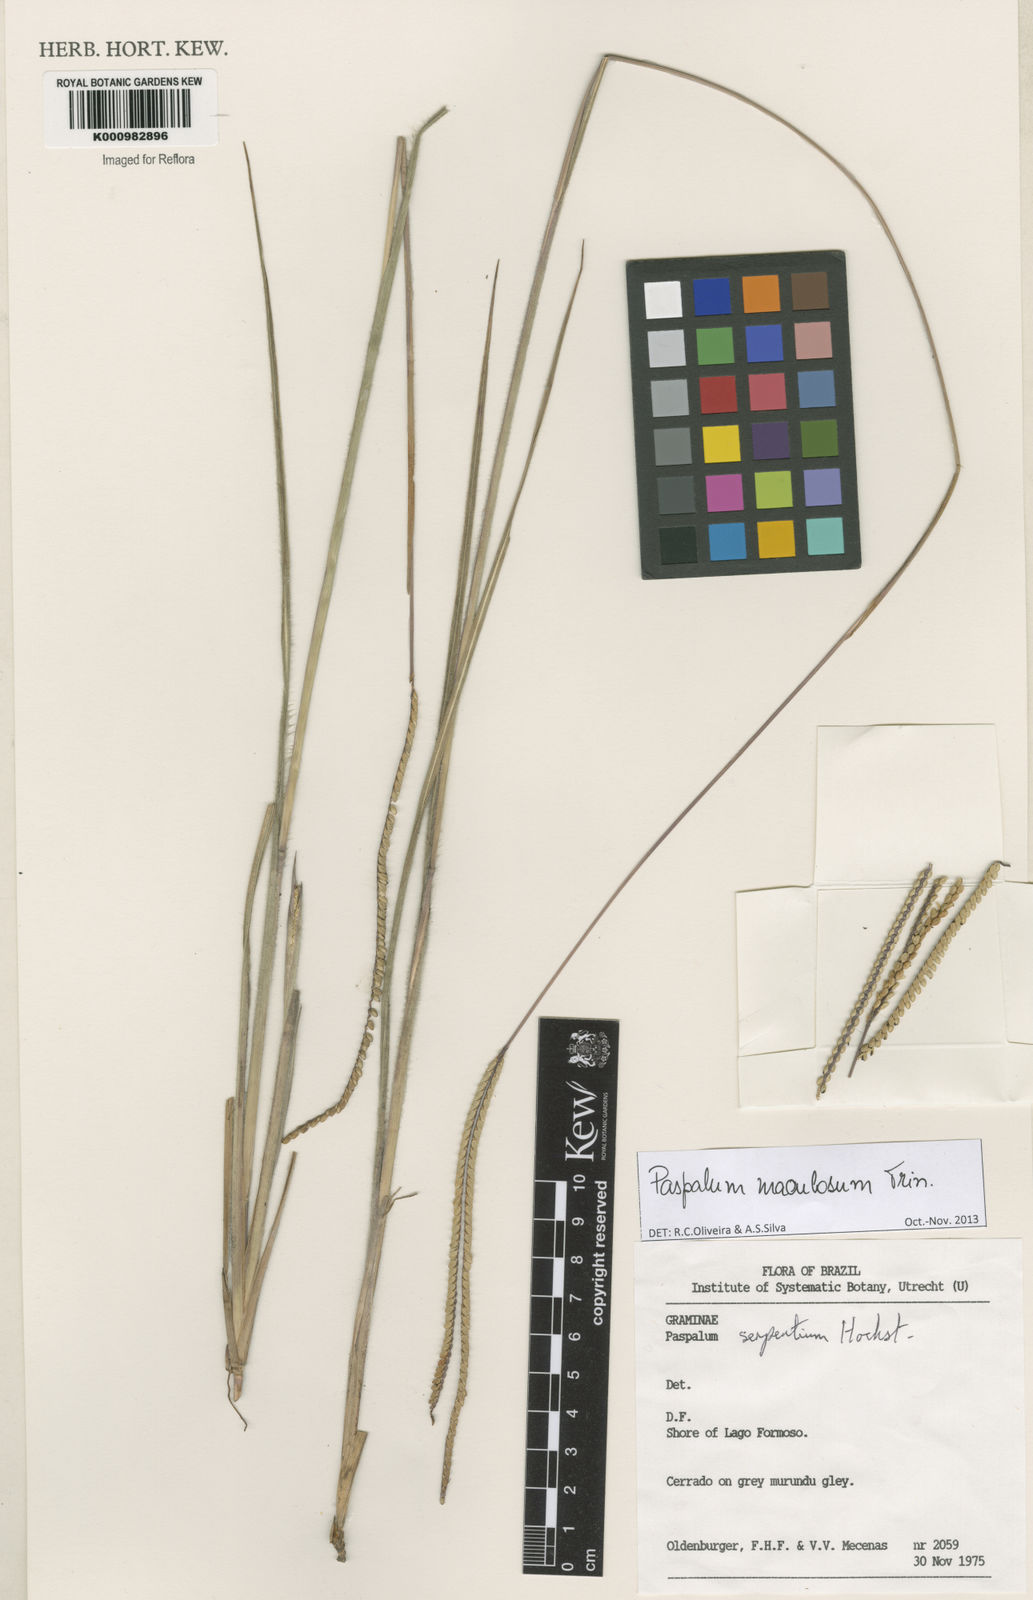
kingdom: Plantae
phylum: Tracheophyta
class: Liliopsida
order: Poales
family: Poaceae
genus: Paspalum
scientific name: Paspalum maculosum
